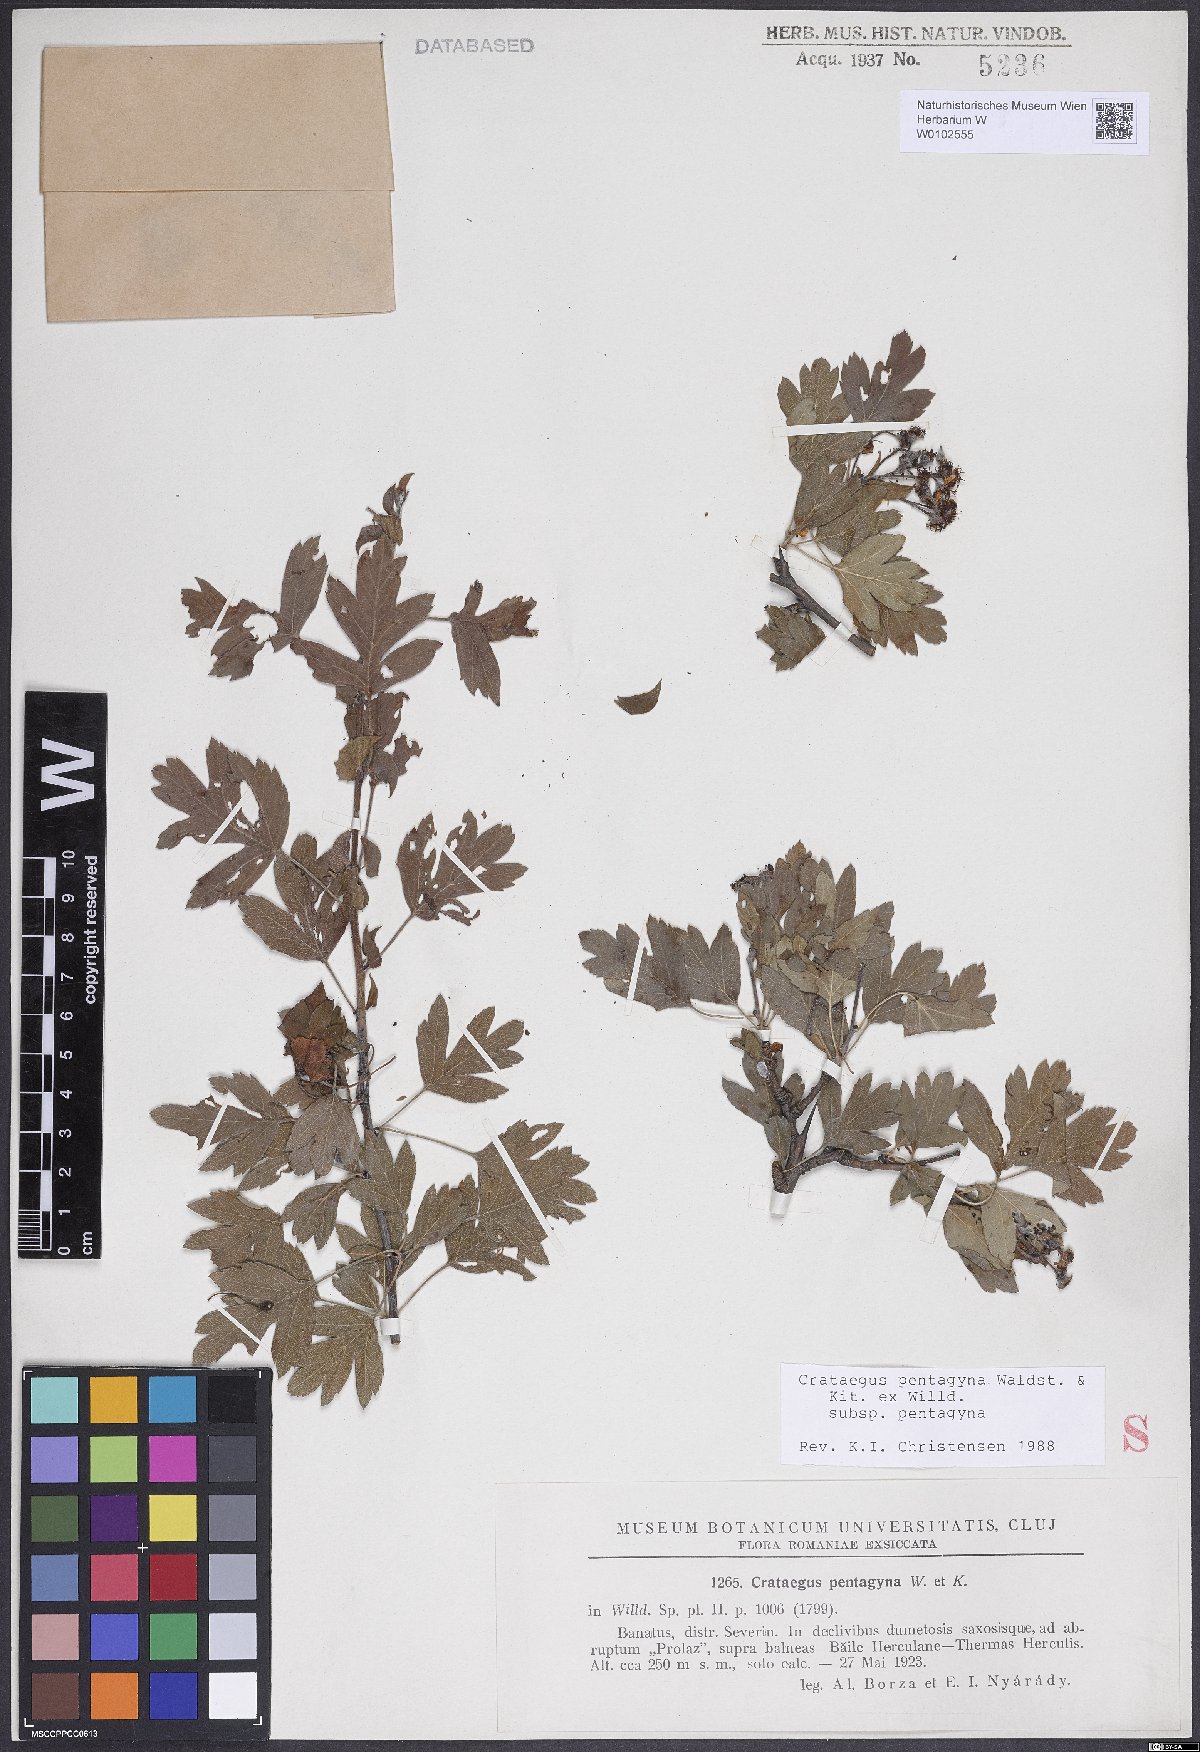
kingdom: Plantae
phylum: Tracheophyta
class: Magnoliopsida
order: Rosales
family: Rosaceae
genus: Crataegus
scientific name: Crataegus pentagyna
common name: Small-flowered black hawthorn
